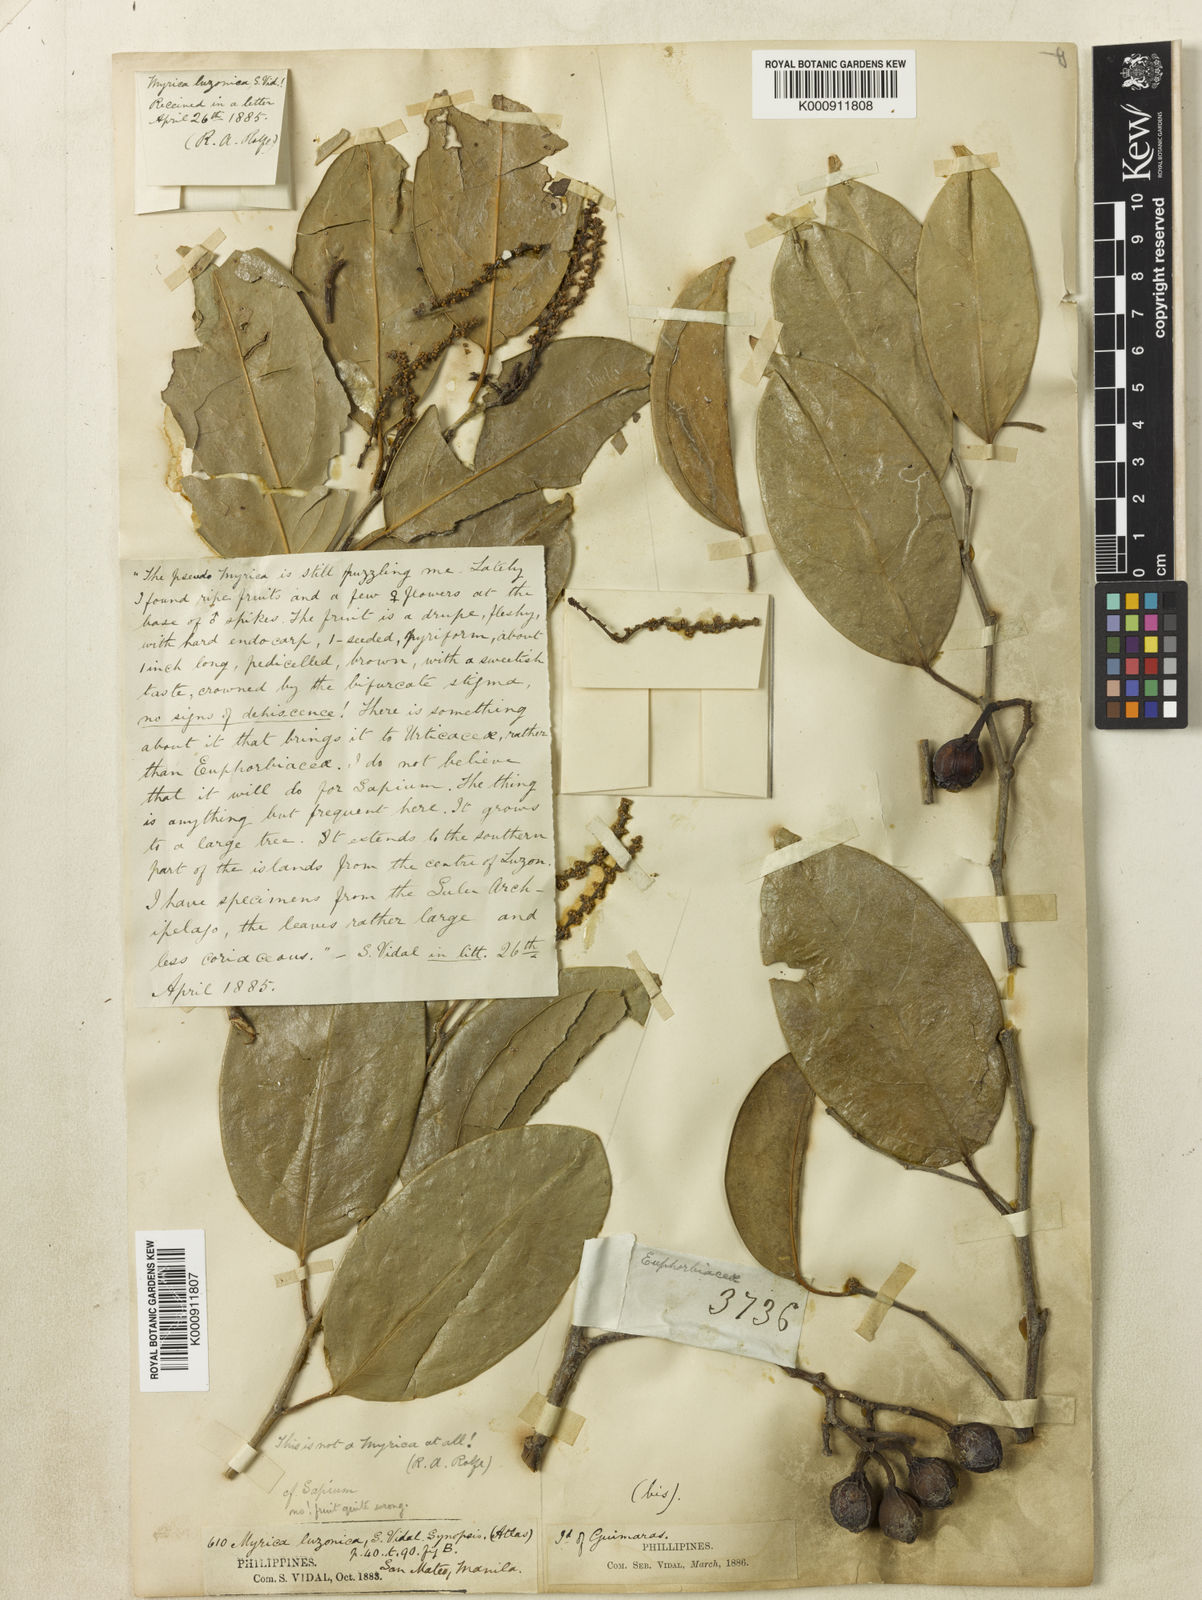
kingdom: Plantae
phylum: Tracheophyta
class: Magnoliopsida
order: Malpighiales
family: Euphorbiaceae
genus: Balakata
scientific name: Balakata luzonica
